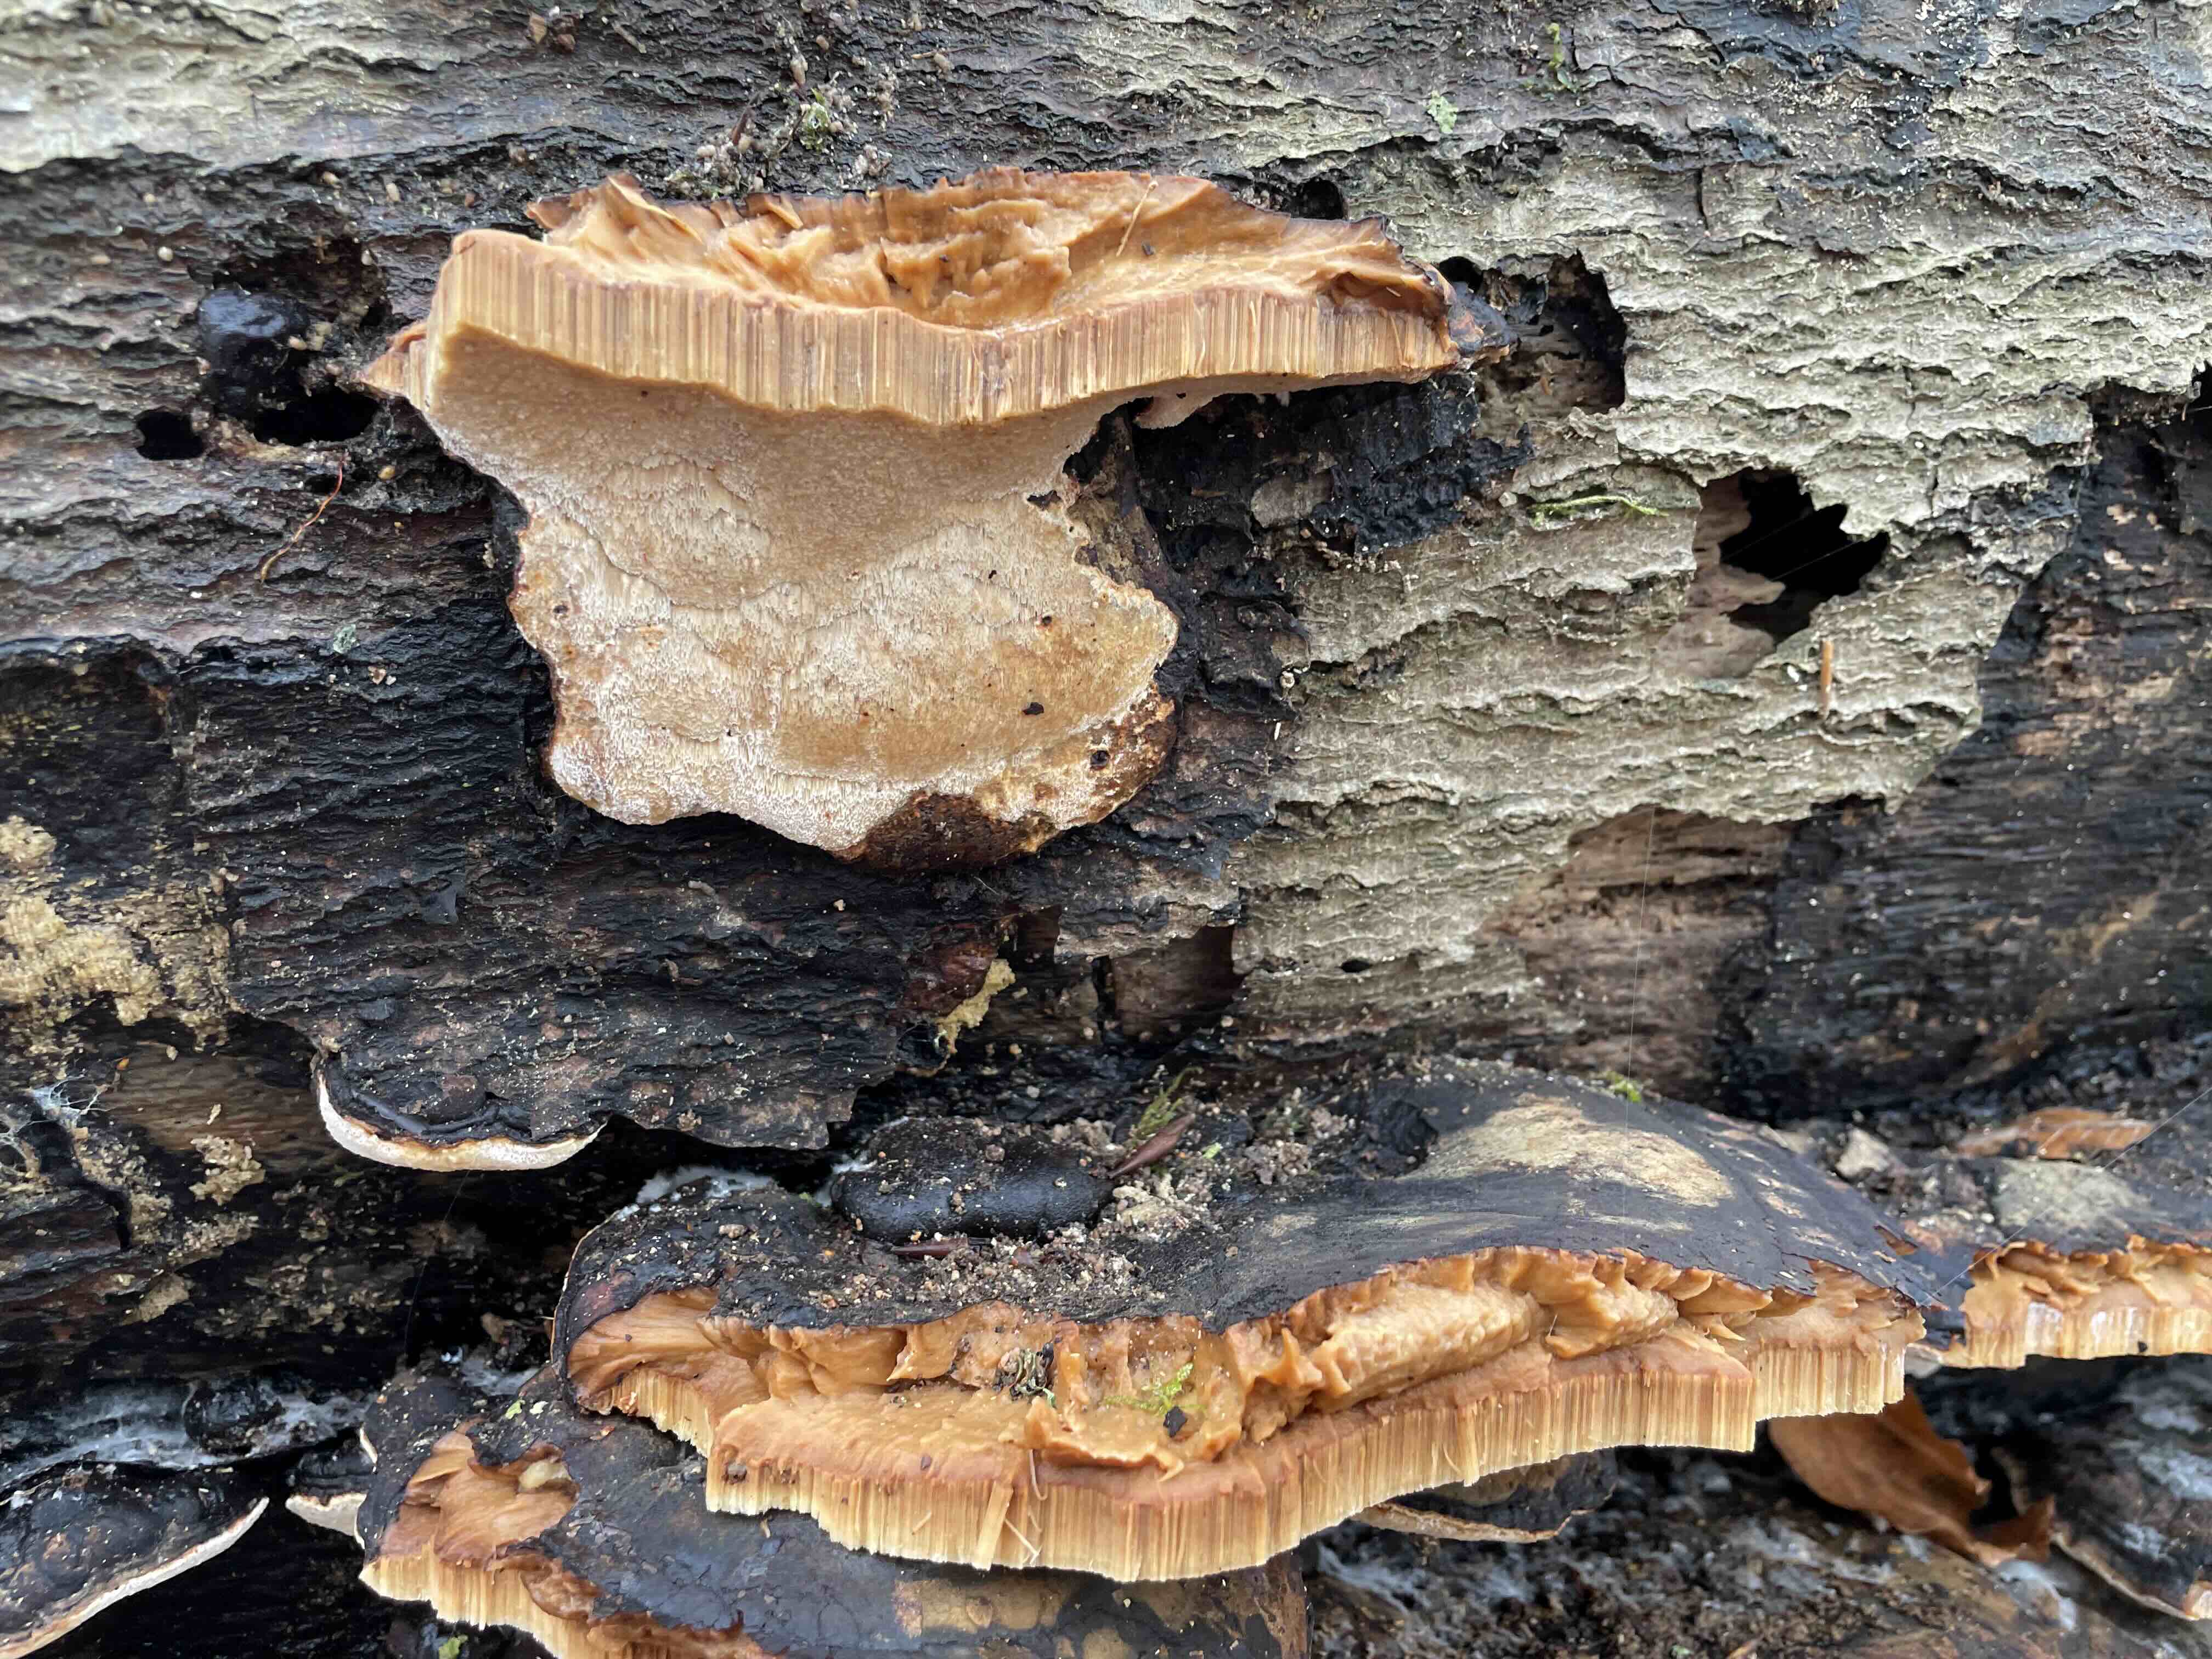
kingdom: Fungi
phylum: Basidiomycota
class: Agaricomycetes
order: Polyporales
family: Ischnodermataceae
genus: Ischnoderma
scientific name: Ischnoderma resinosum
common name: løv-tjæreporesvamp
